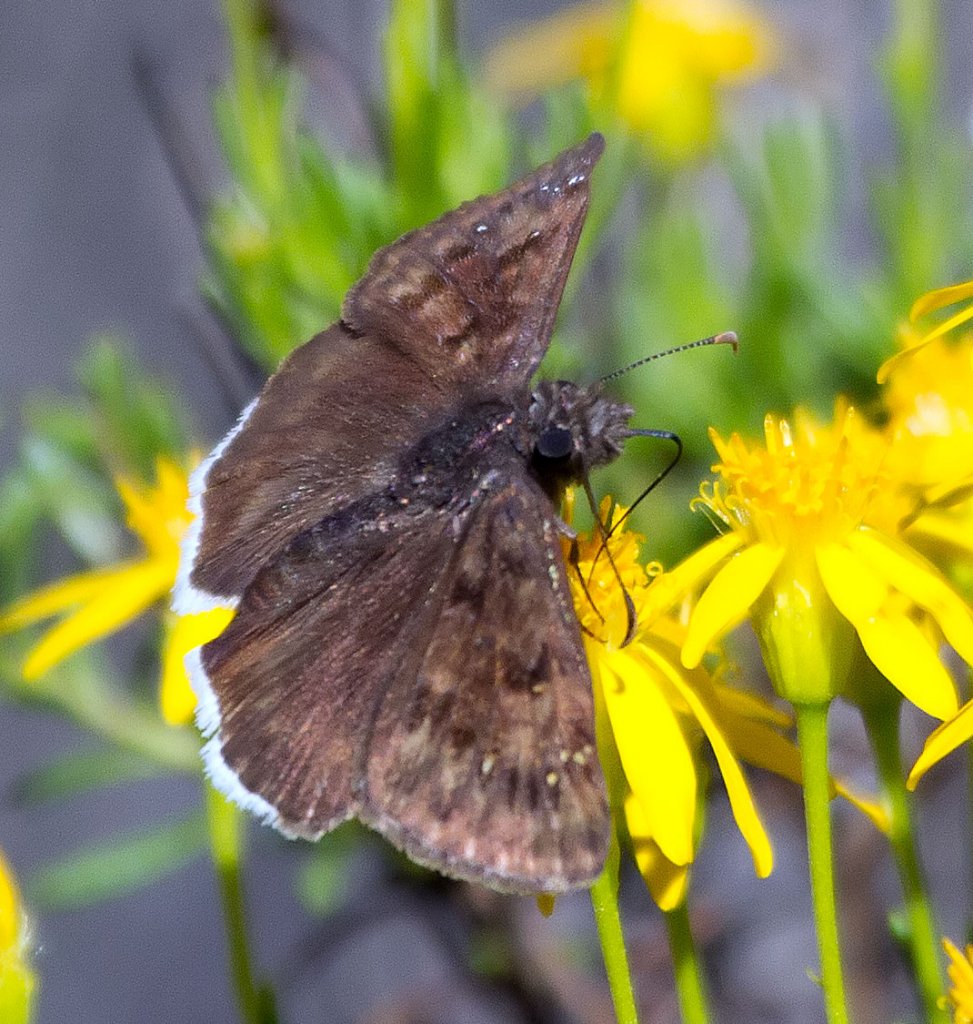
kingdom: Animalia
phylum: Arthropoda
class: Insecta
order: Lepidoptera
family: Hesperiidae
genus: Thorybes
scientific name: Thorybes drusius
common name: Drusius Cloudywing
